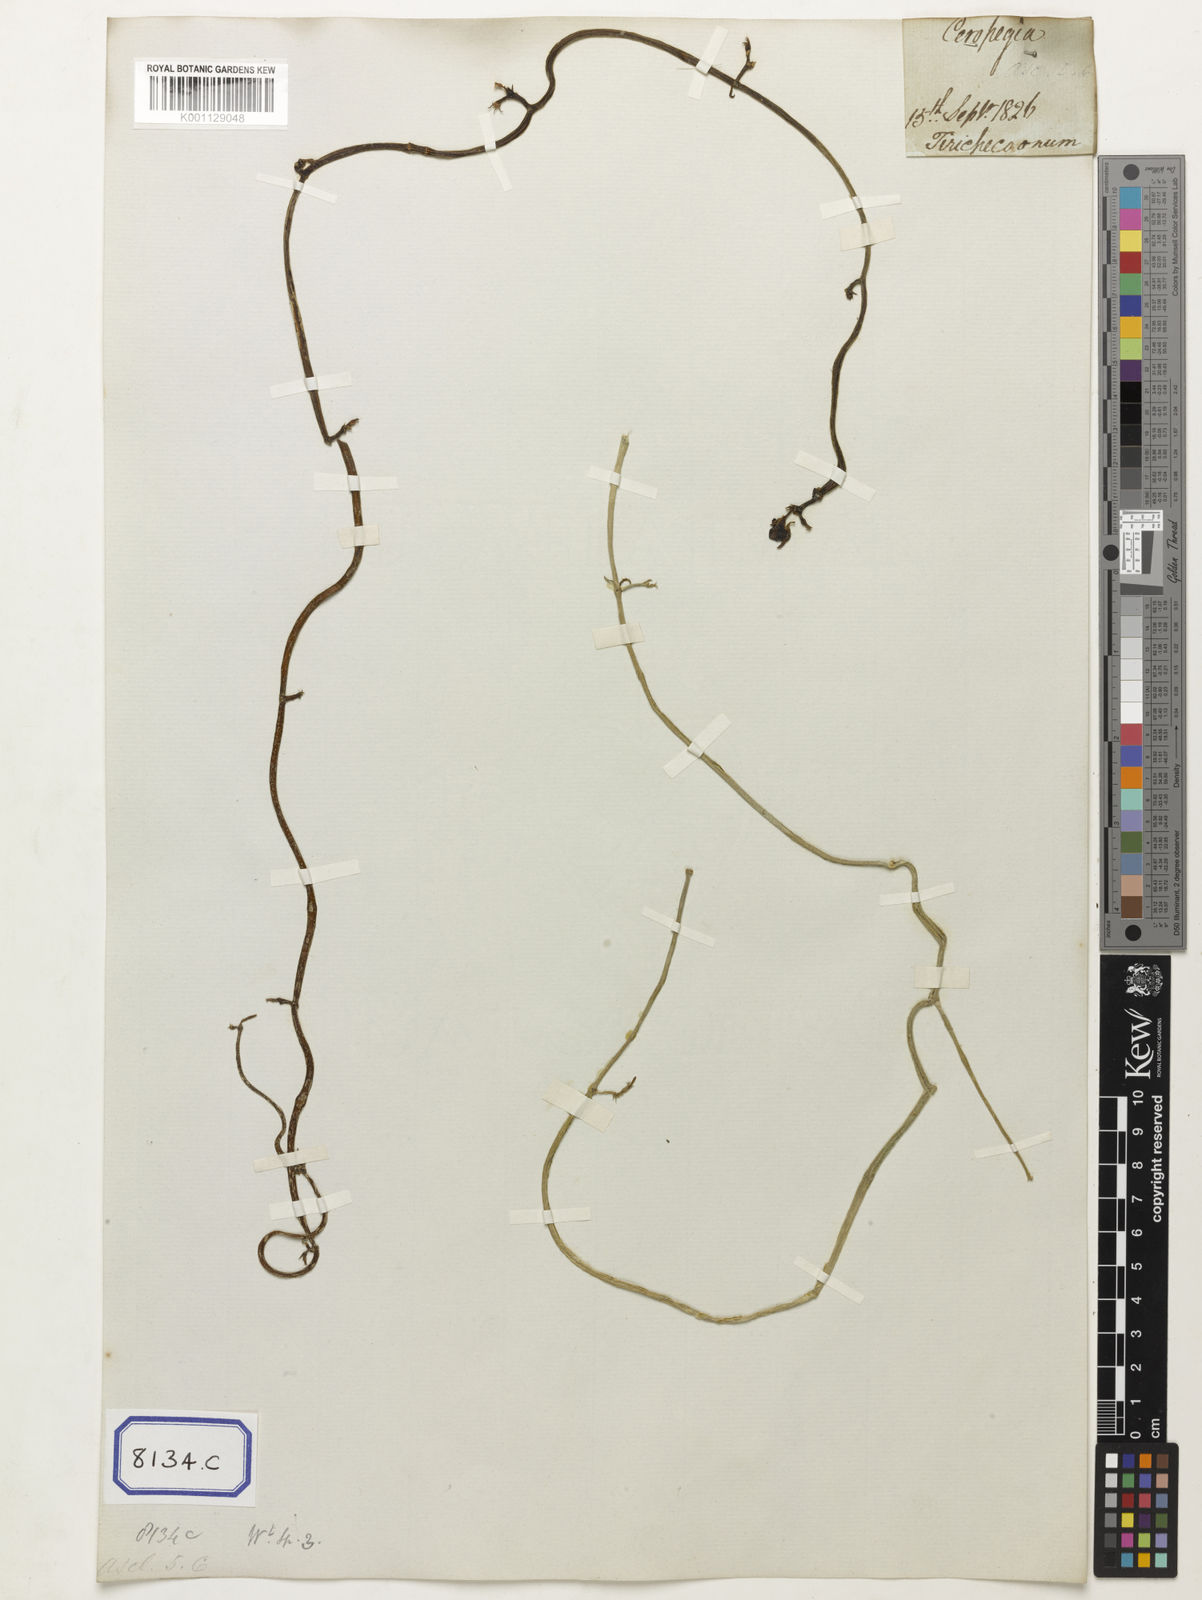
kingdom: Plantae
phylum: Tracheophyta
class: Magnoliopsida
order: Gentianales
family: Apocynaceae
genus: Ceropegia
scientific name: Ceropegia juncea
